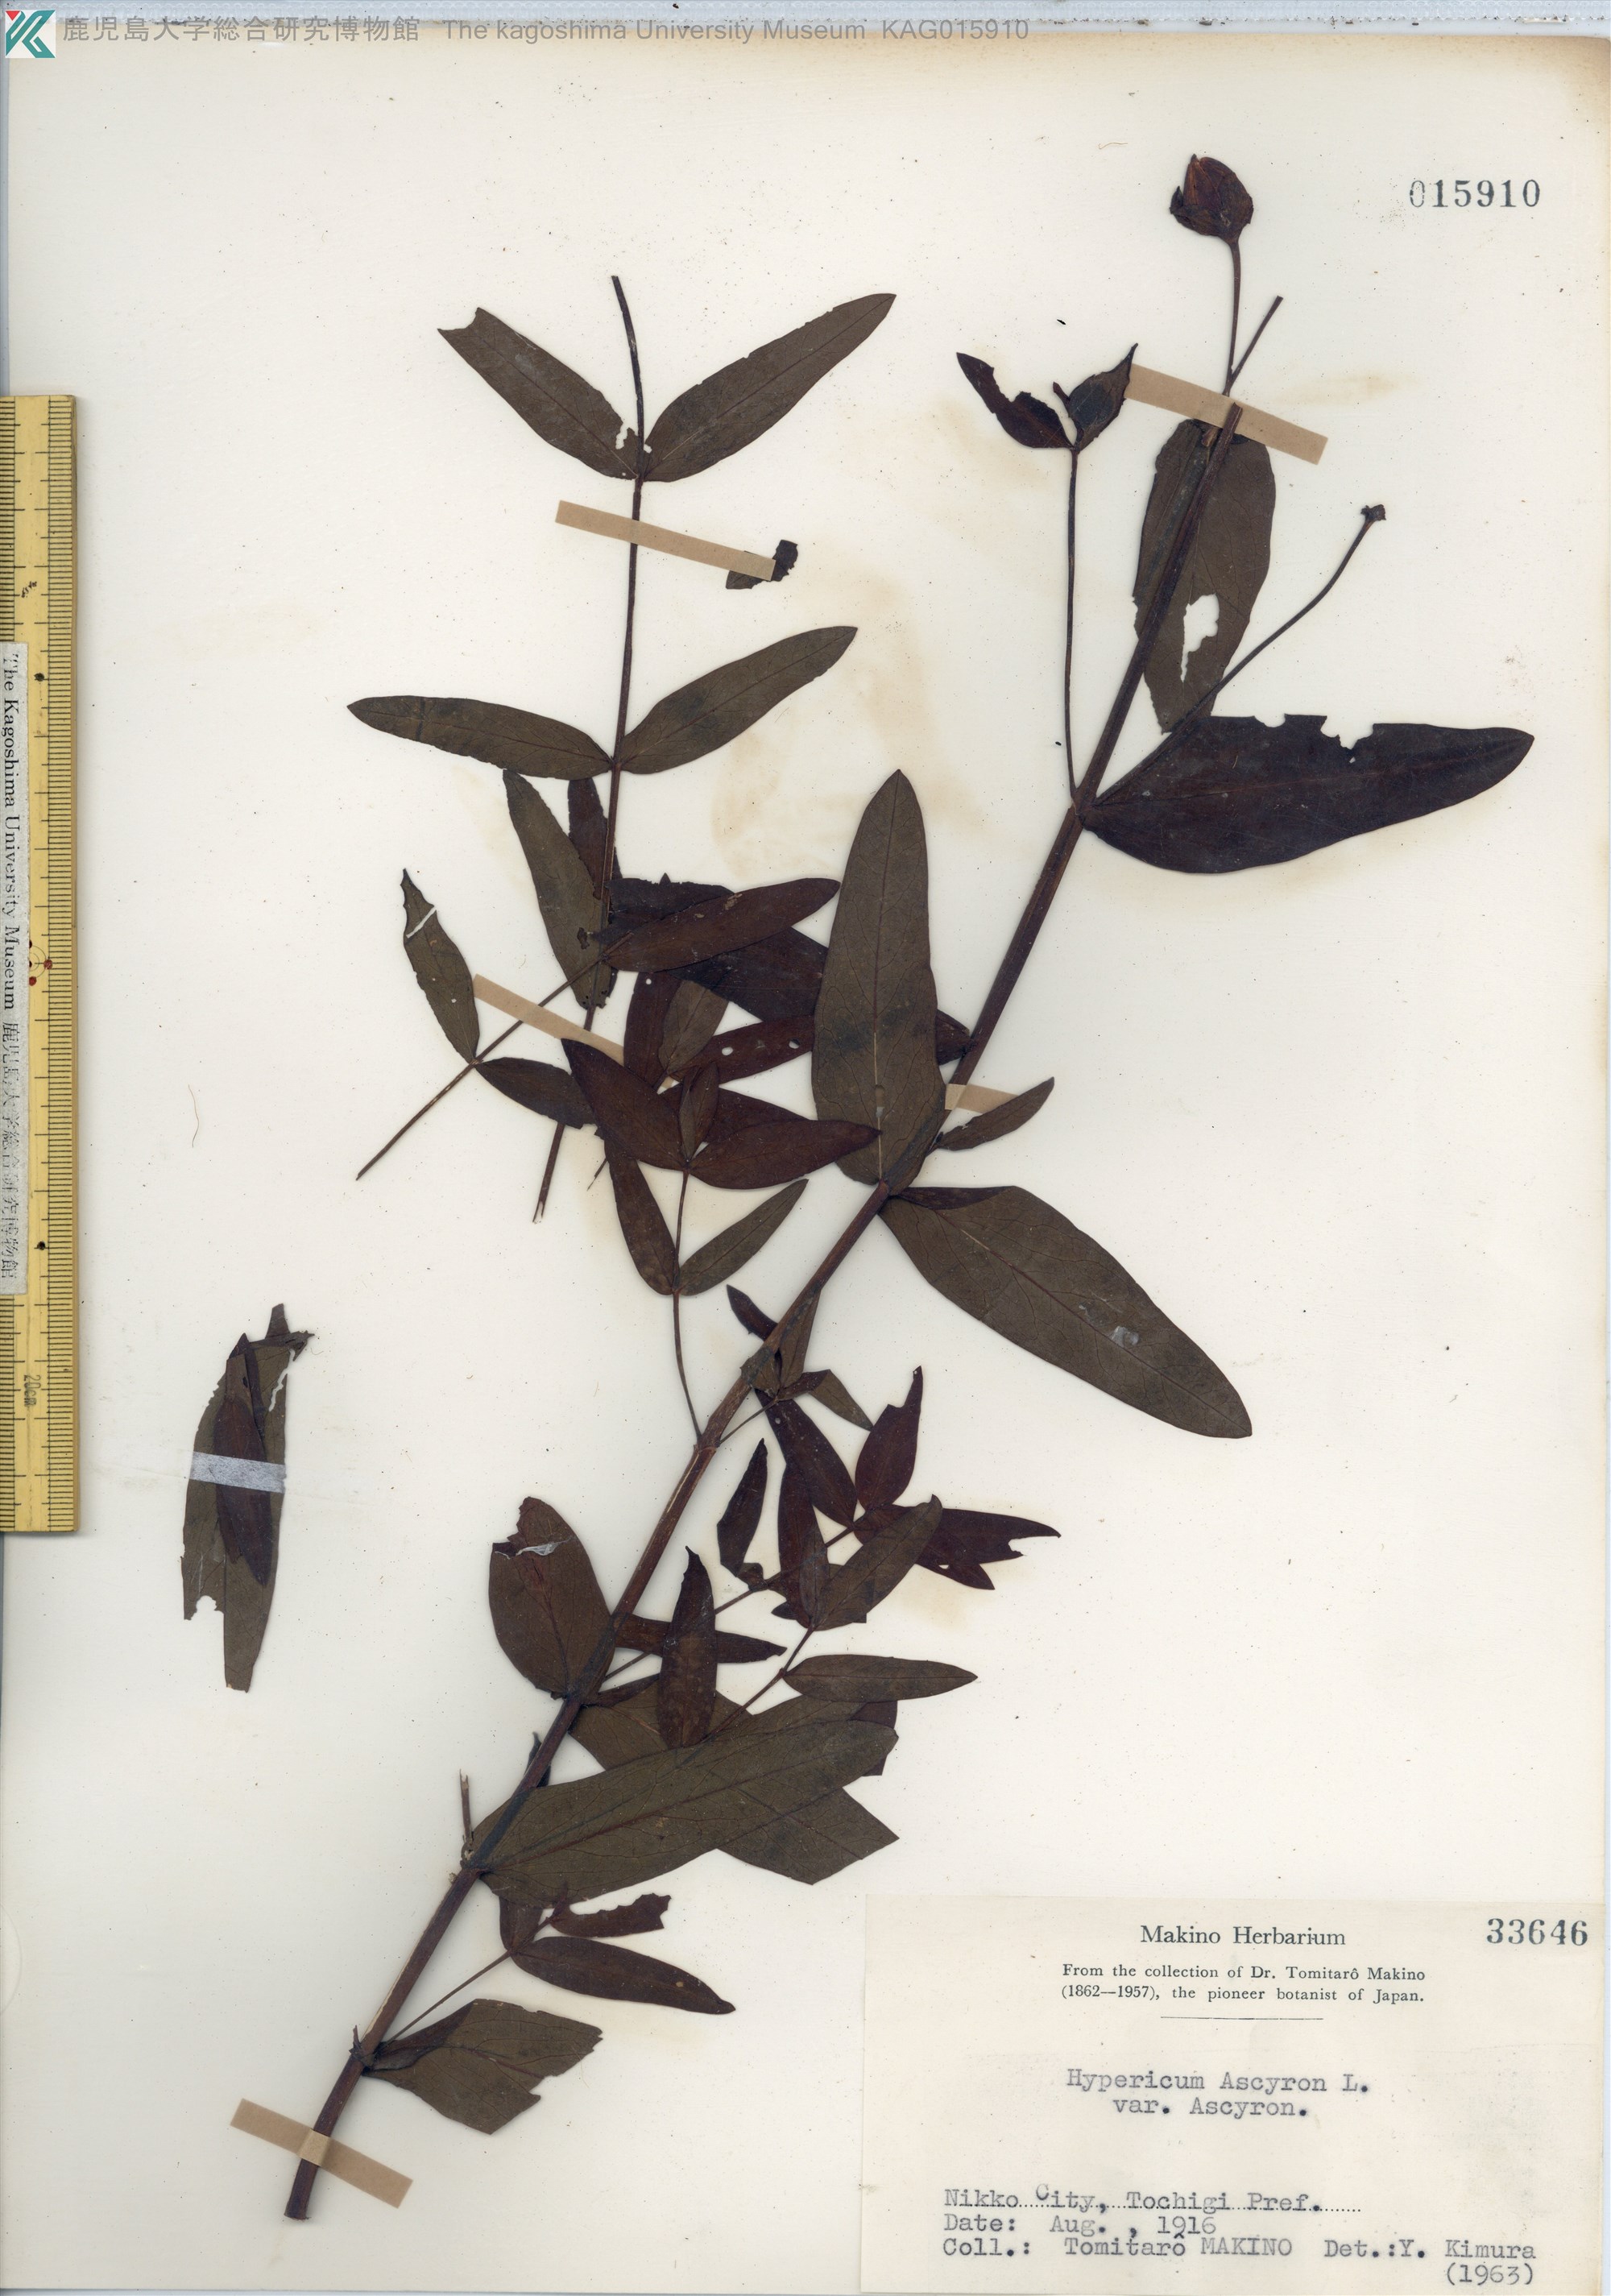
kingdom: Plantae
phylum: Tracheophyta
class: Magnoliopsida
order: Malpighiales
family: Hypericaceae
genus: Hypericum
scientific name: Hypericum ascyron
